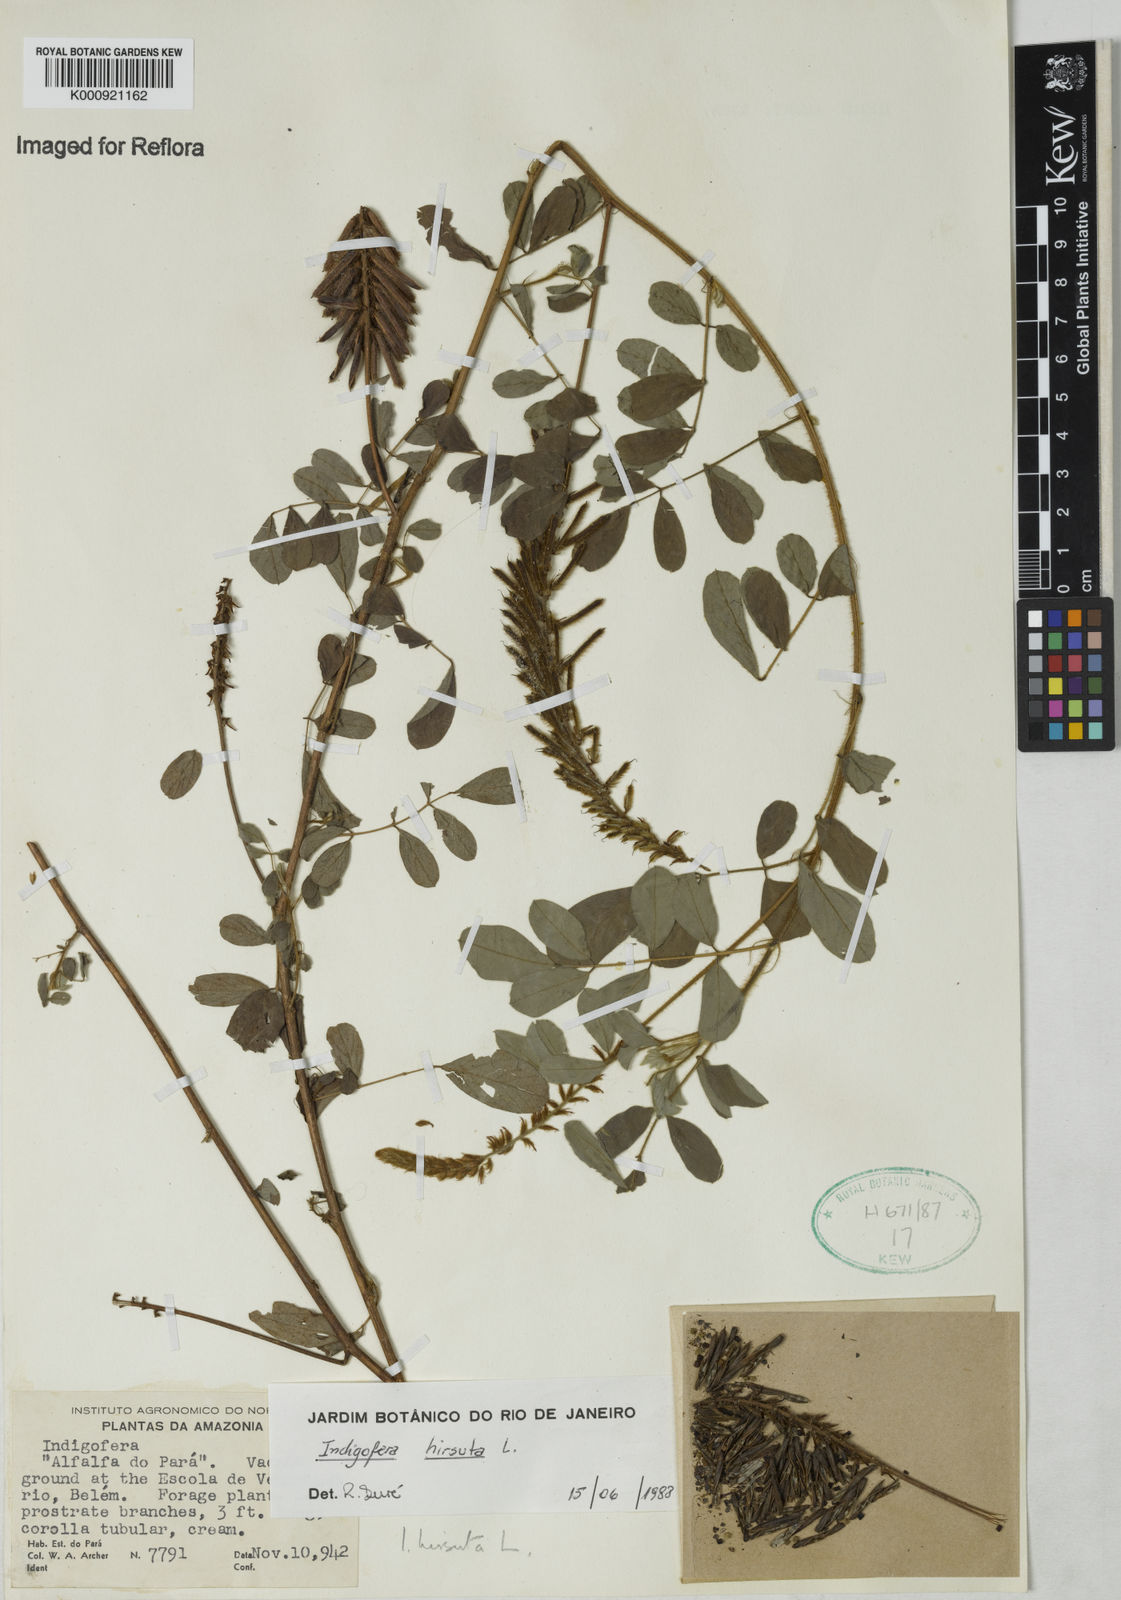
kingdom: Plantae
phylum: Tracheophyta
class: Magnoliopsida
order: Fabales
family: Fabaceae
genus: Indigofera
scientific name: Indigofera
